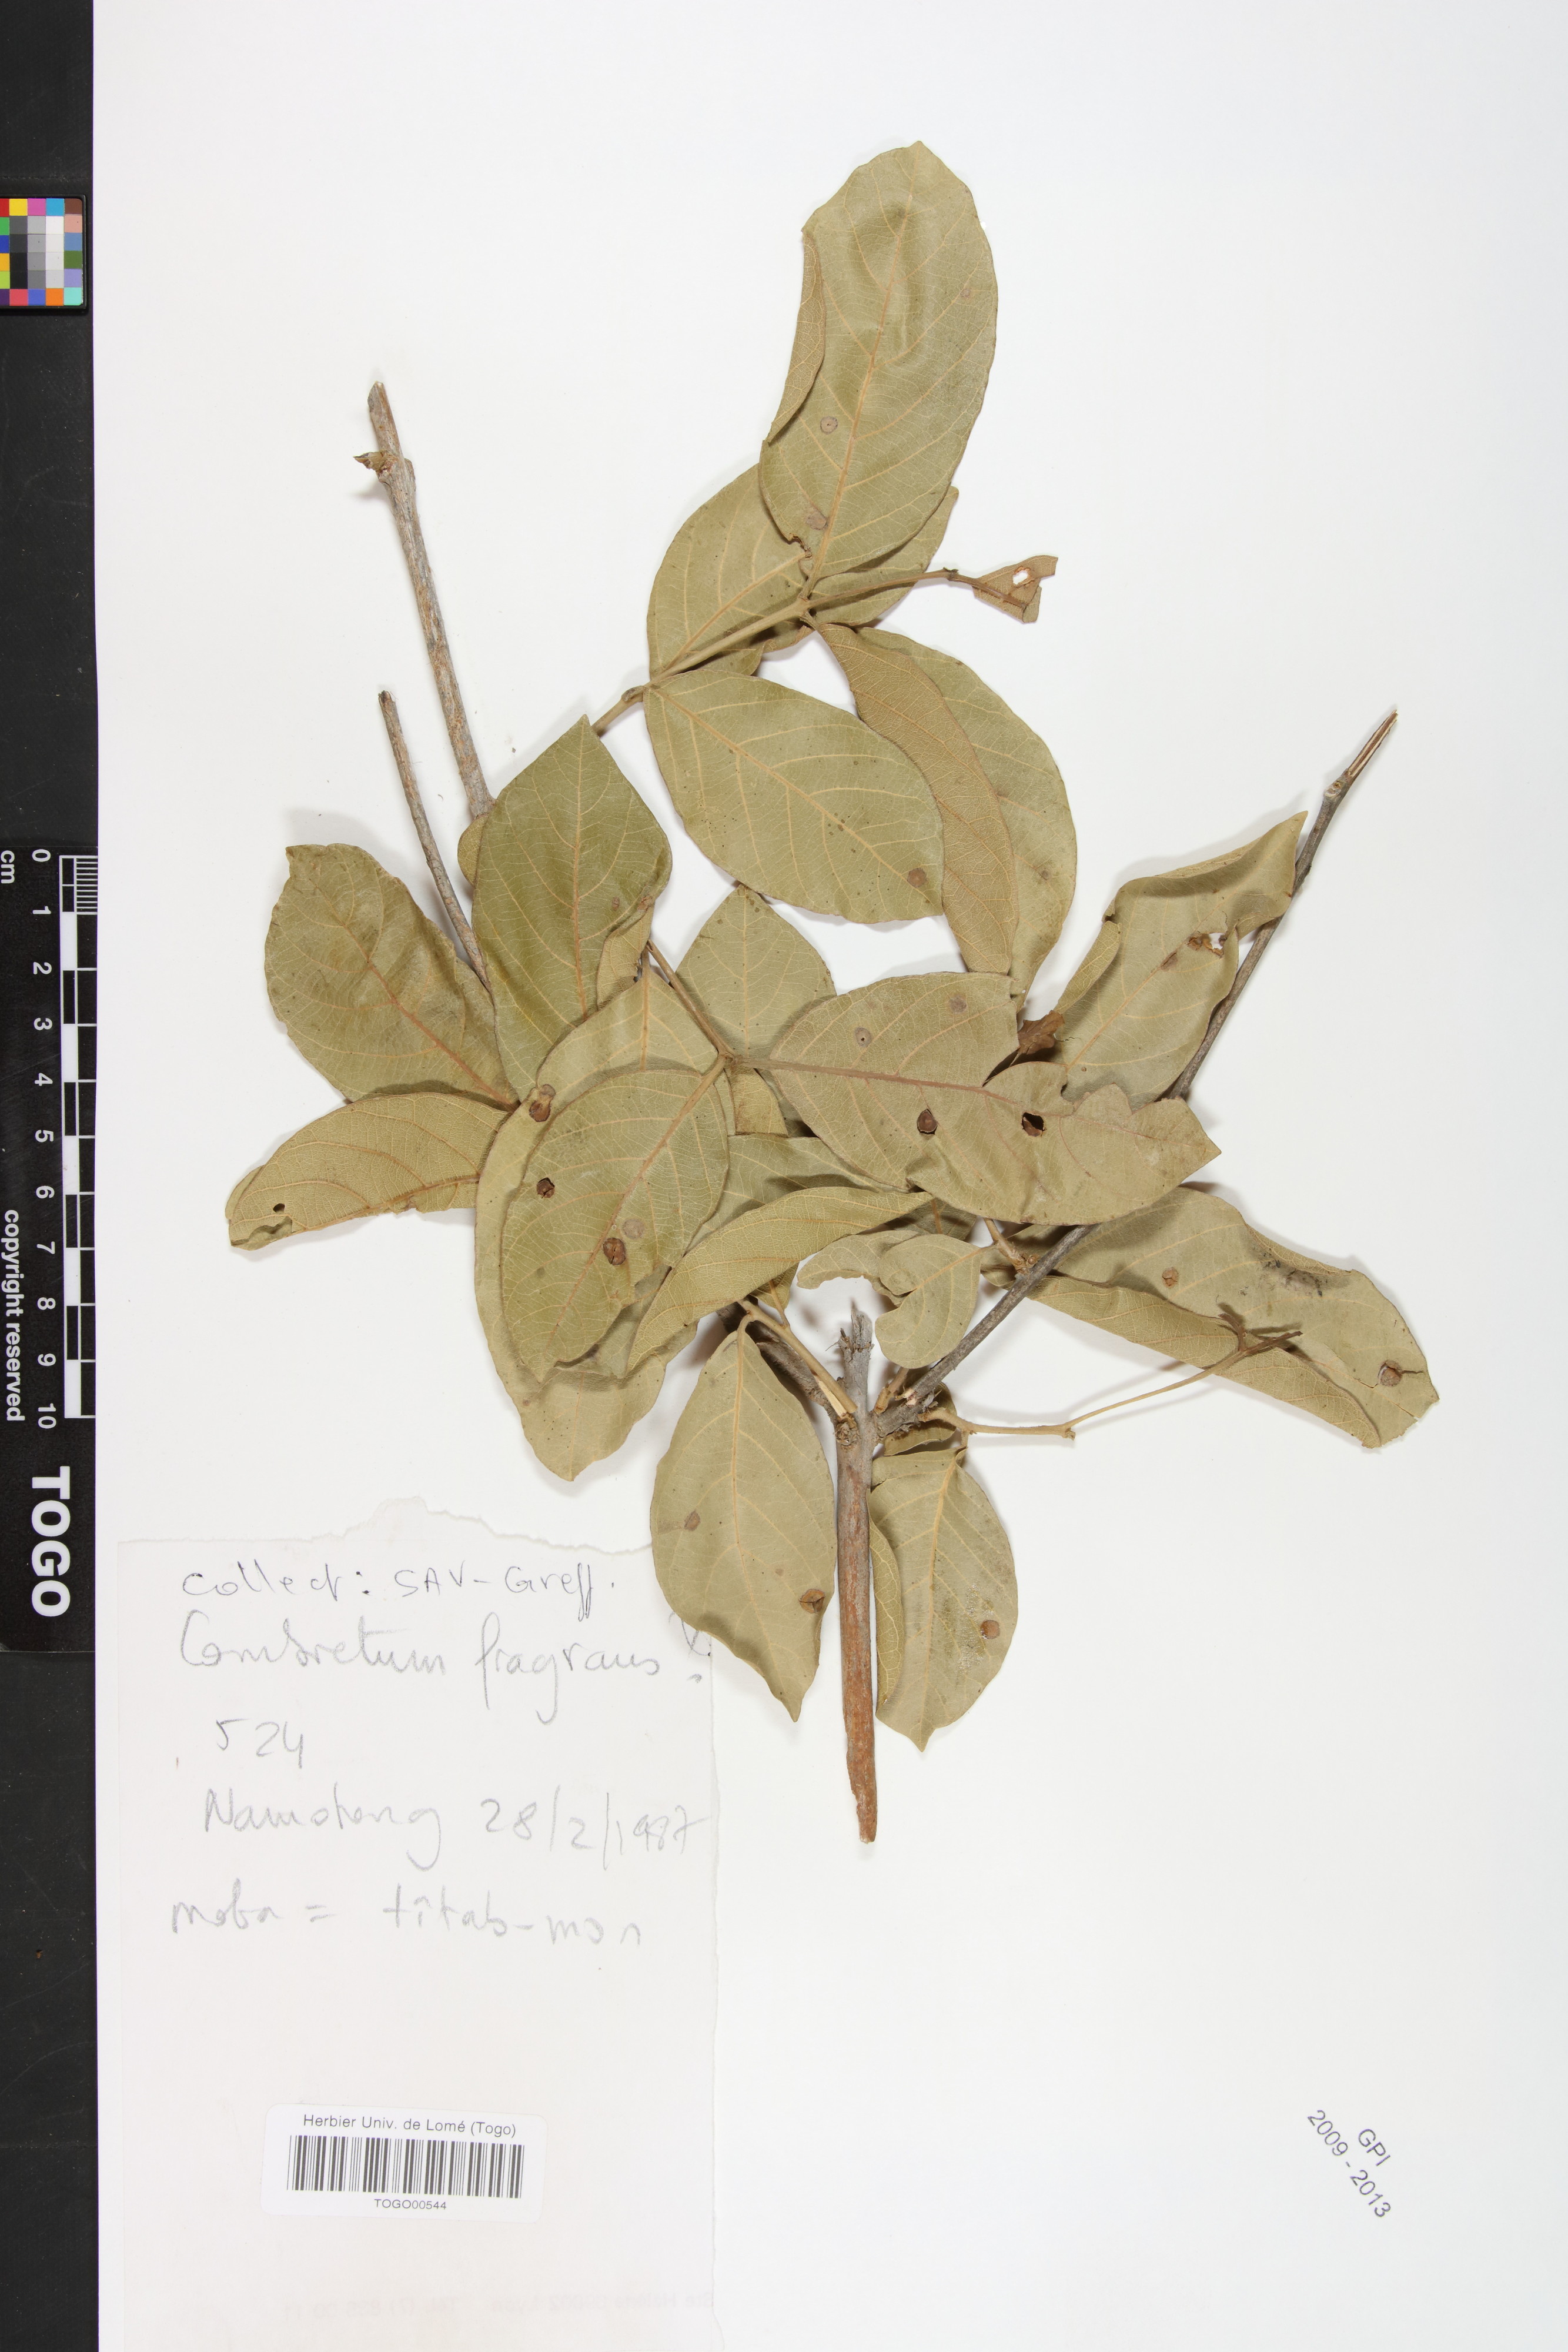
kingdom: Plantae
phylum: Tracheophyta
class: Magnoliopsida
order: Myrtales
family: Combretaceae
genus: Combretum
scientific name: Combretum adenogonium
